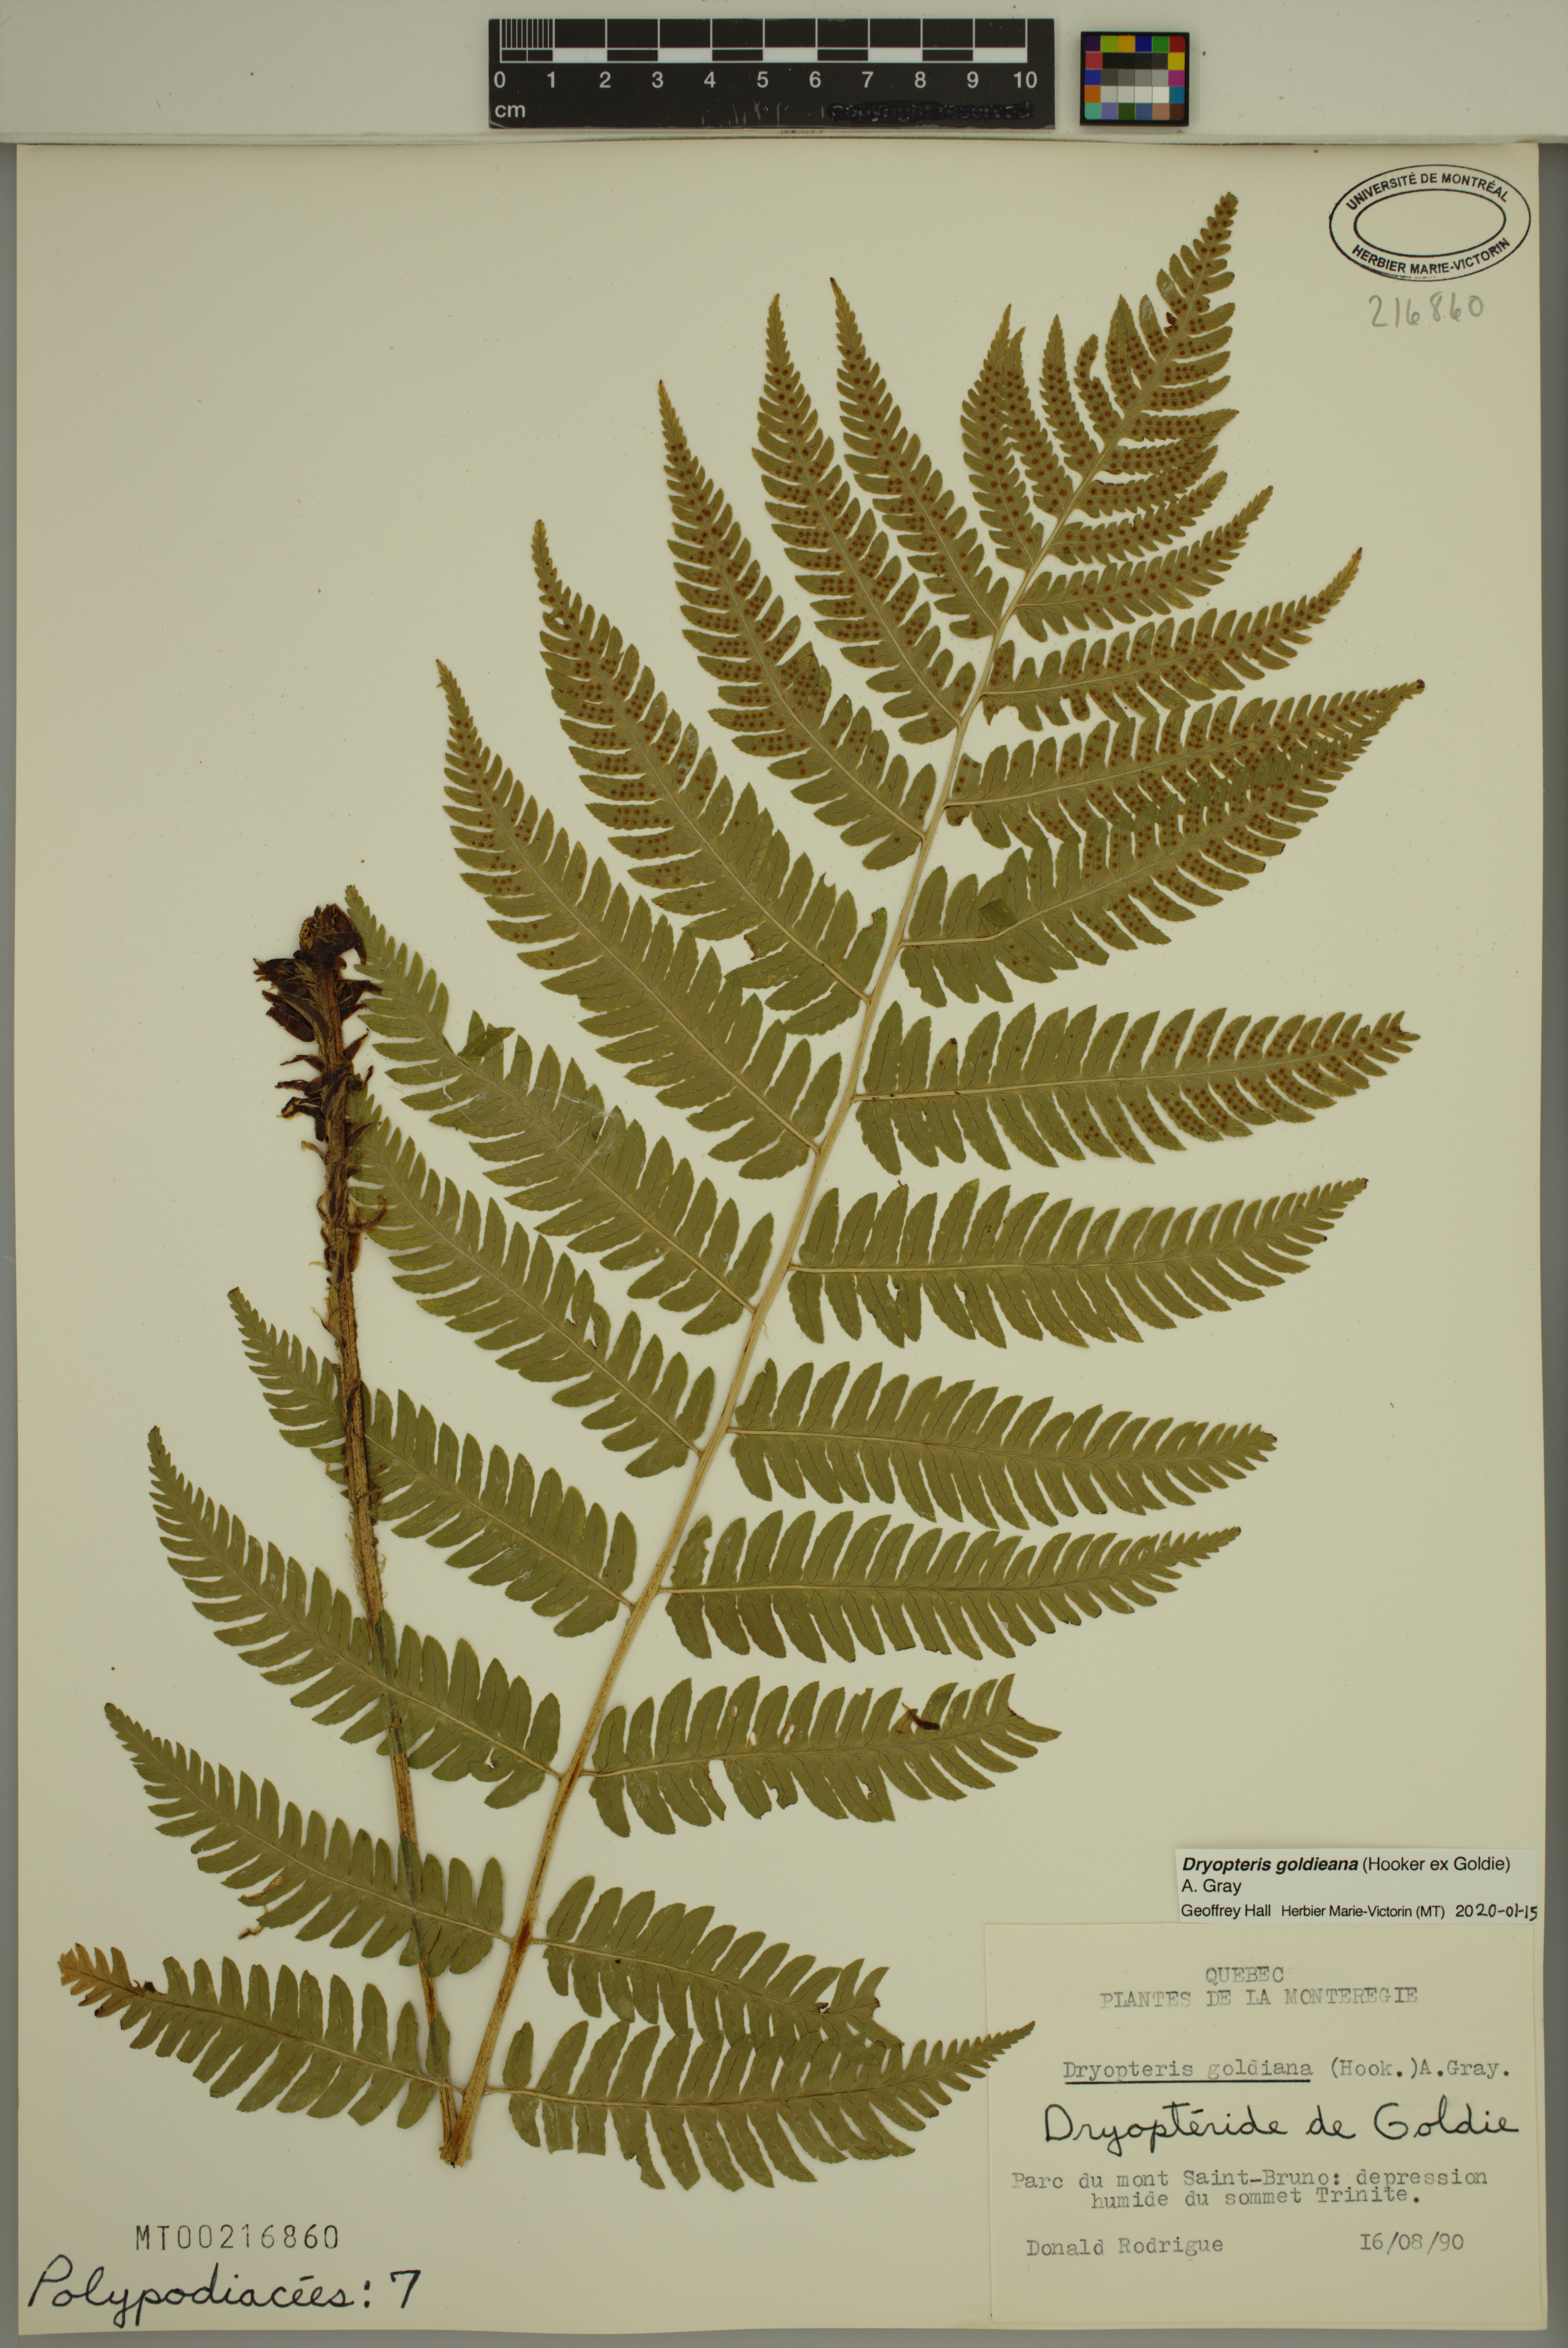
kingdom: Plantae
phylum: Tracheophyta
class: Polypodiopsida
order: Polypodiales
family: Dryopteridaceae
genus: Dryopteris
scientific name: Dryopteris goldieana
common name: Goldie's fern
